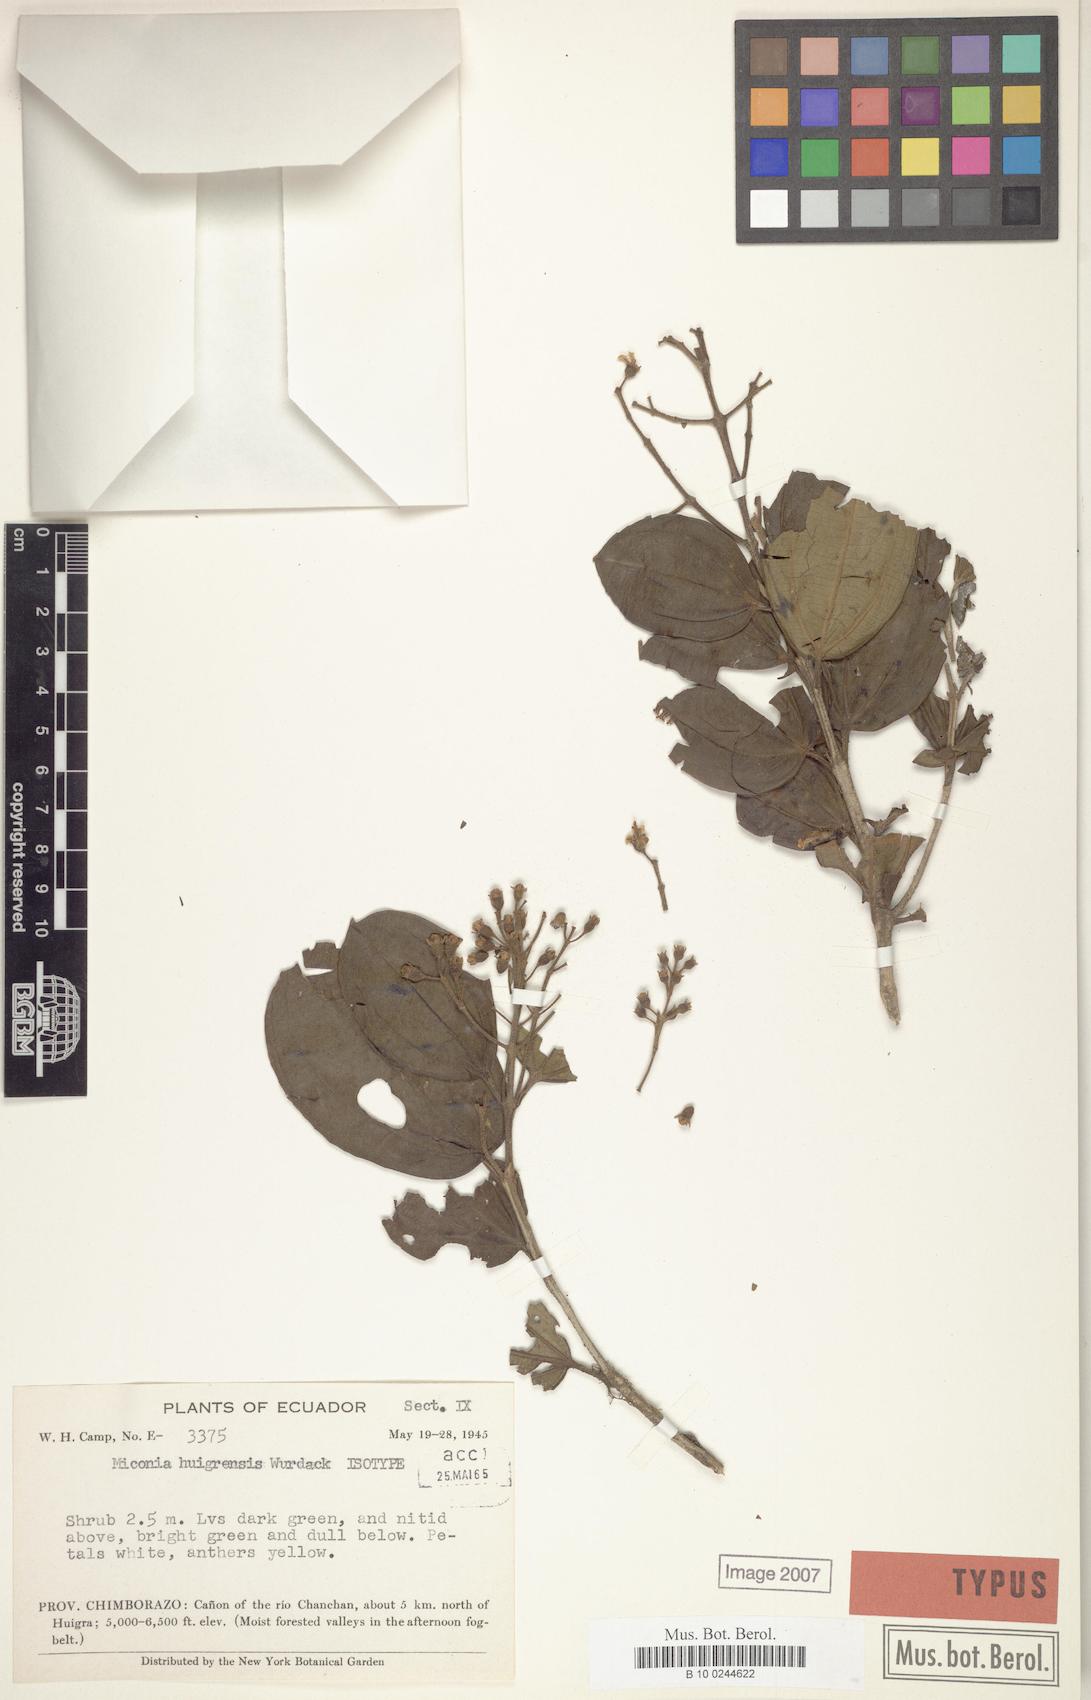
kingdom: Plantae
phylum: Tracheophyta
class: Magnoliopsida
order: Myrtales
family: Melastomataceae
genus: Miconia
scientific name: Miconia huigrensis
